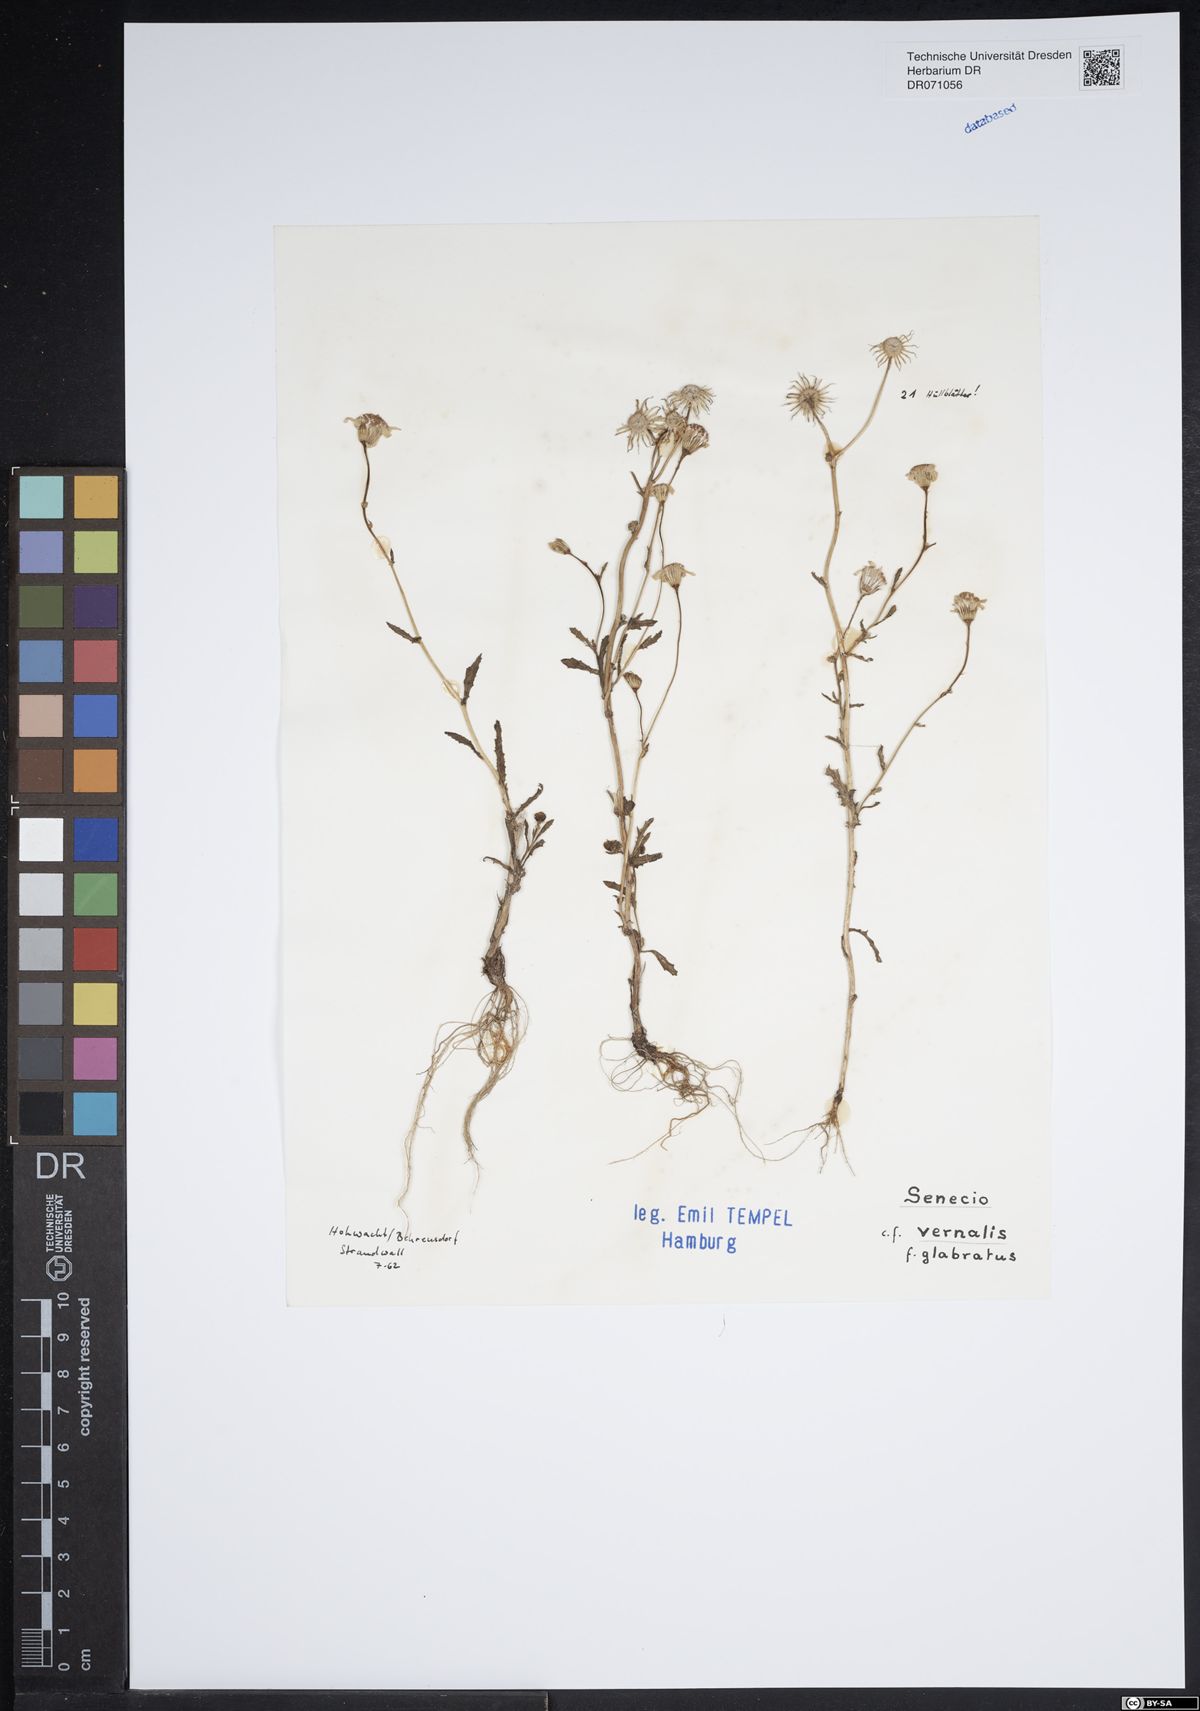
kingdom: Plantae
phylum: Tracheophyta
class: Magnoliopsida
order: Asterales
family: Asteraceae
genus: Senecio
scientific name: Senecio vernalis
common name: Eastern groundsel
